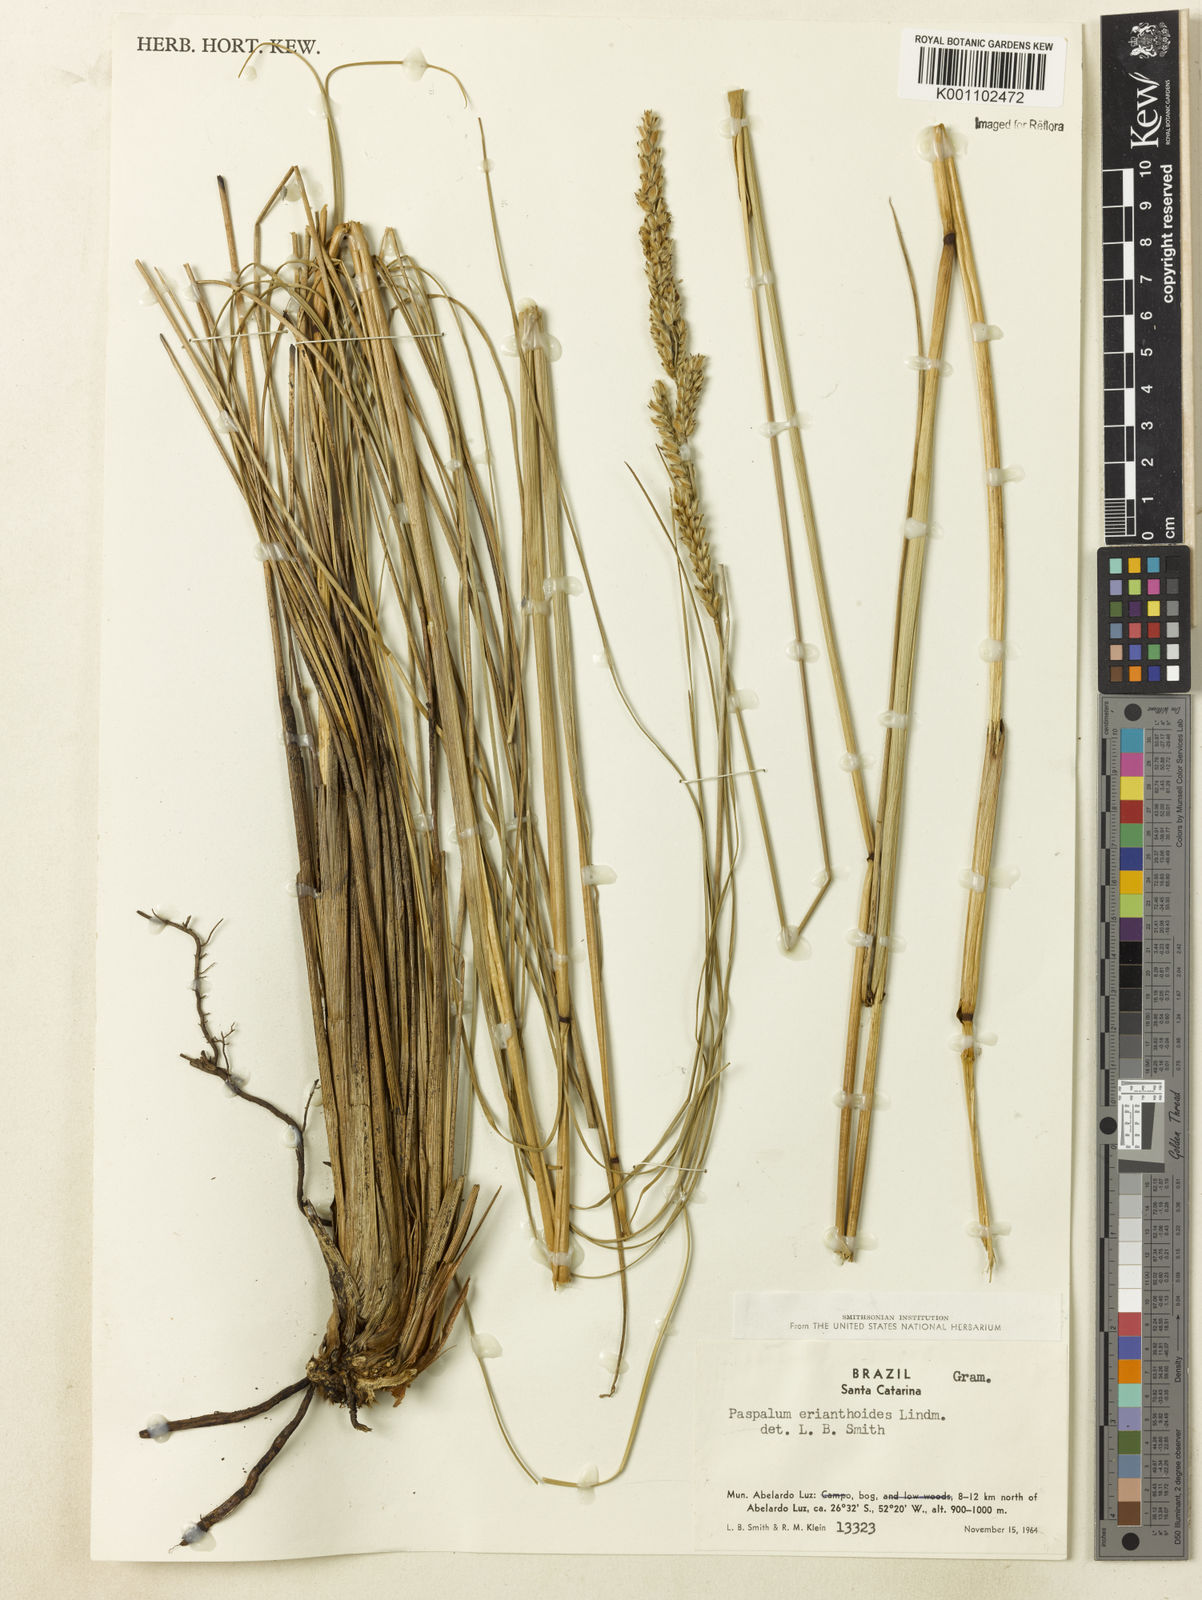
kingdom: Plantae
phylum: Tracheophyta
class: Liliopsida
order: Poales
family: Poaceae
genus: Paspalum
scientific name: Paspalum erianthoides
